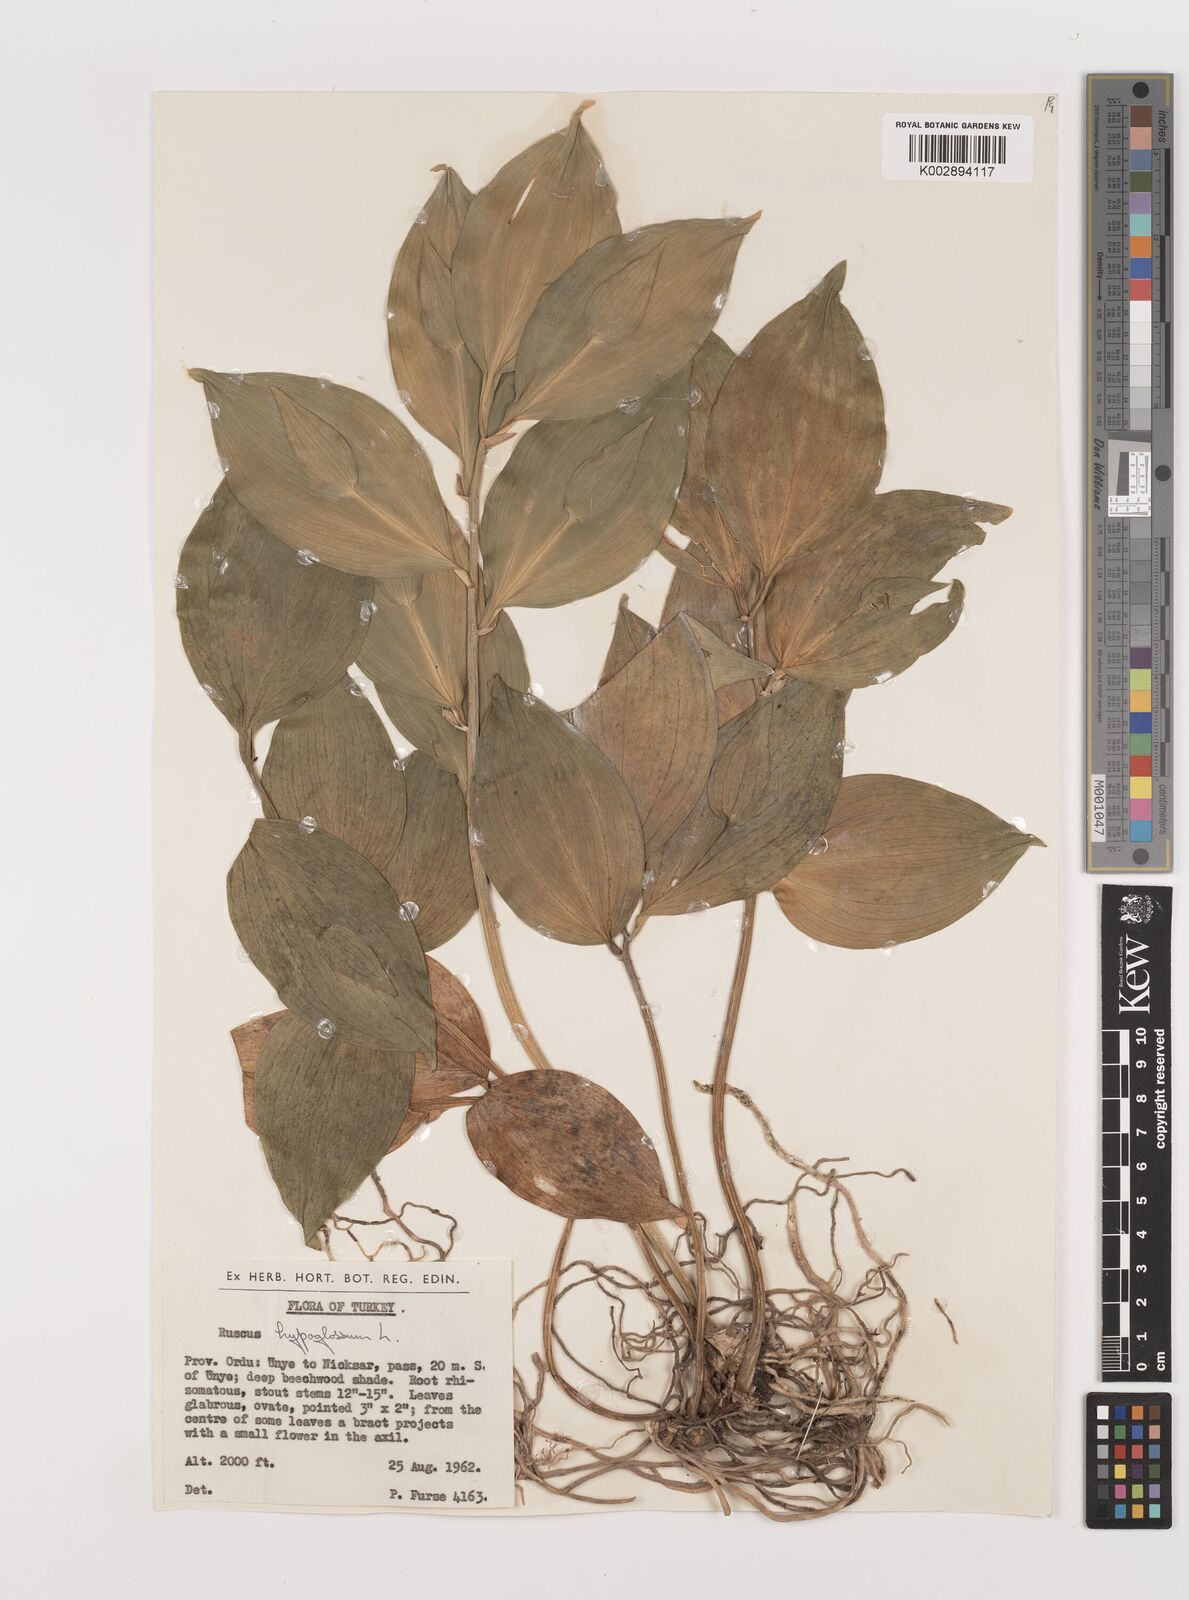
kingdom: Plantae
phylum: Tracheophyta
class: Liliopsida
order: Asparagales
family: Asparagaceae
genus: Ruscus
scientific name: Ruscus hypoglossum
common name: Spineless butcher's-broom
